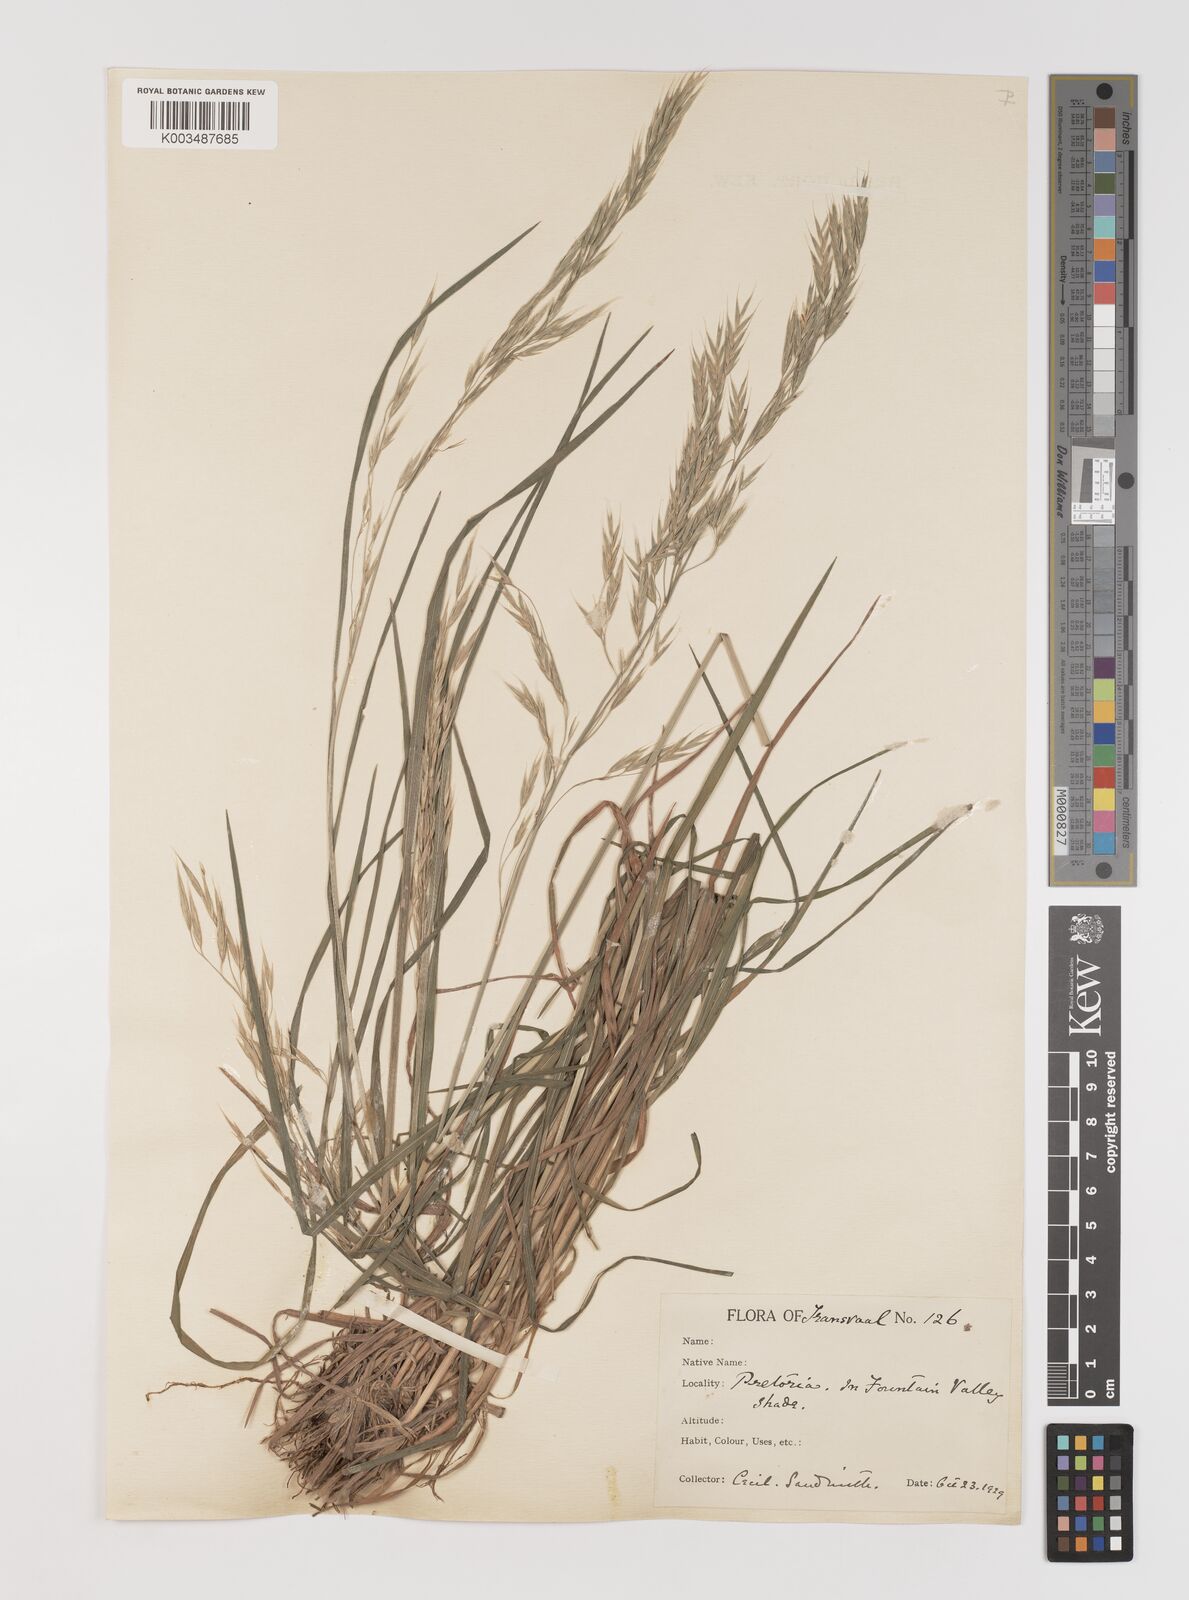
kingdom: Plantae
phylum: Tracheophyta
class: Liliopsida
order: Poales
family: Poaceae
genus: Bromus
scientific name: Bromus leptoclados
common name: Mountain bromegrass
